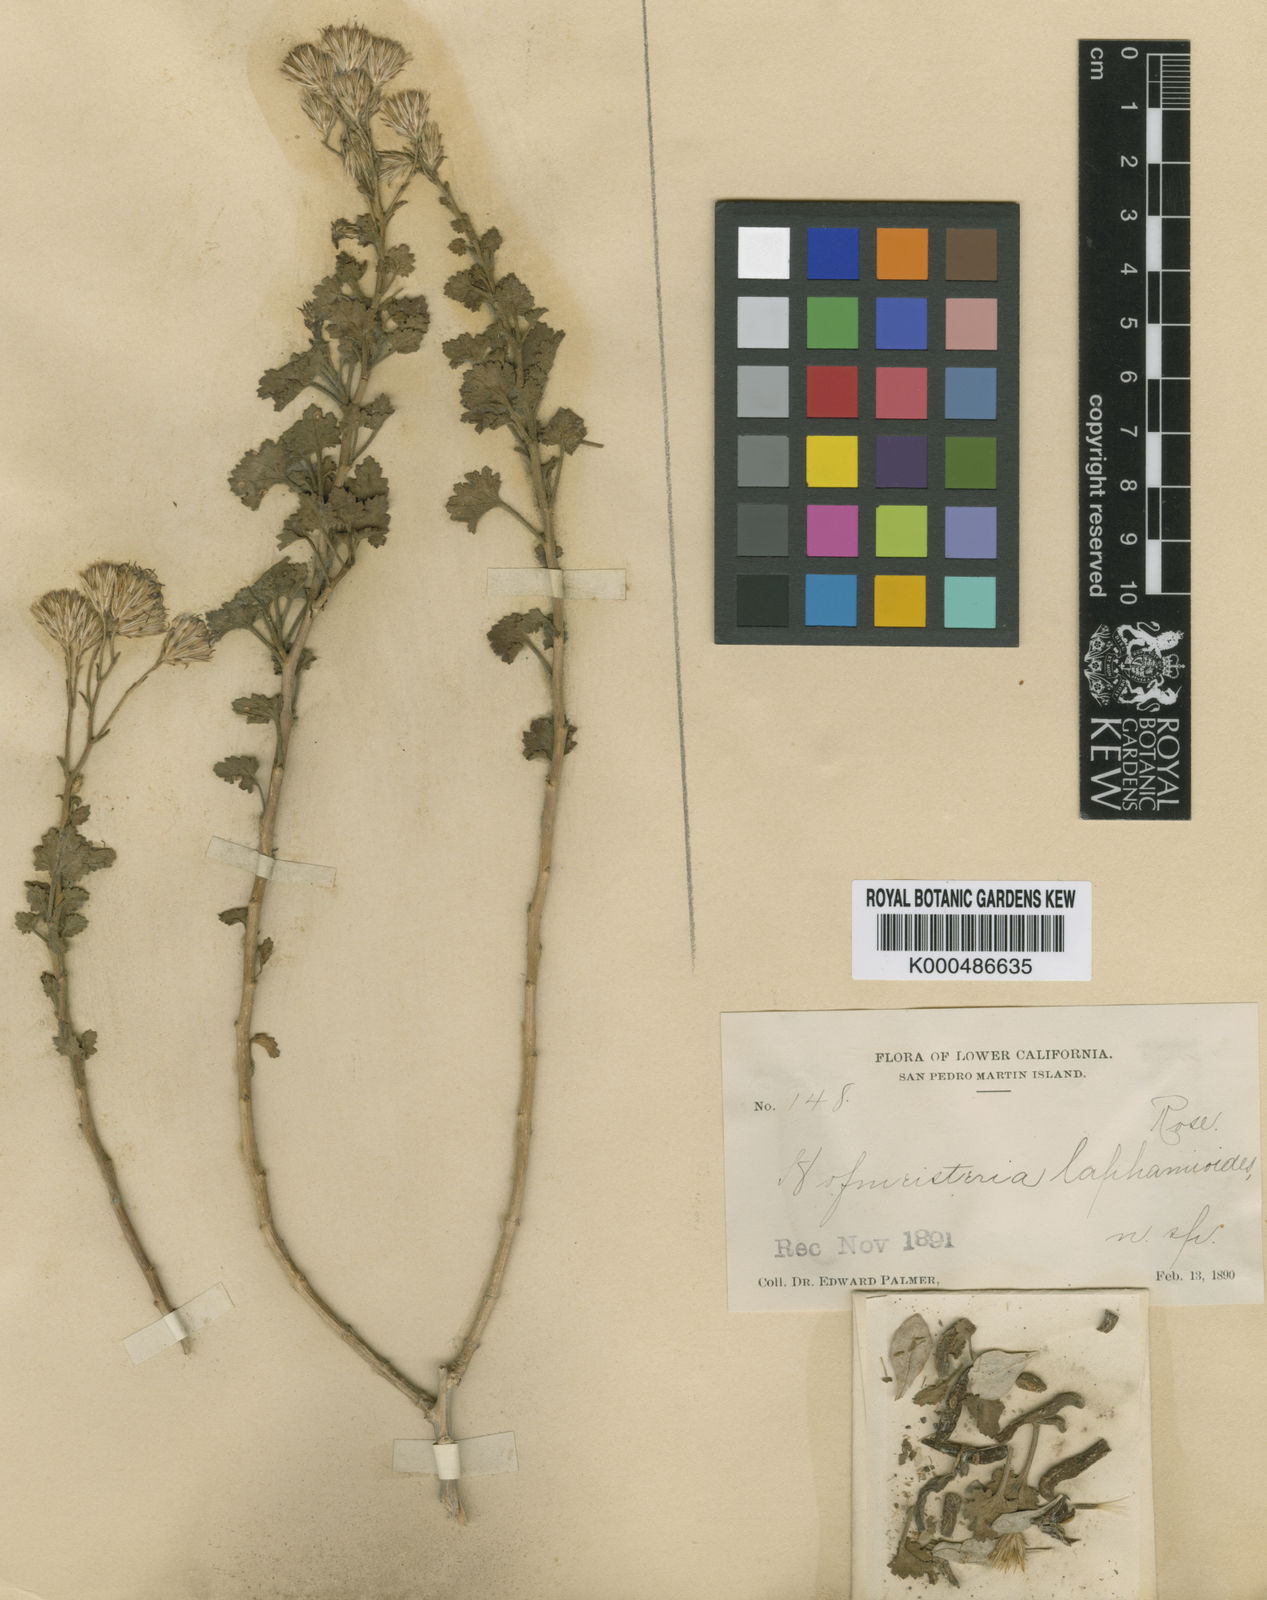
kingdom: Plantae
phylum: Tracheophyta
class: Magnoliopsida
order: Asterales
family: Asteraceae
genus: Pleurocoronis
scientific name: Pleurocoronis laphamioides
